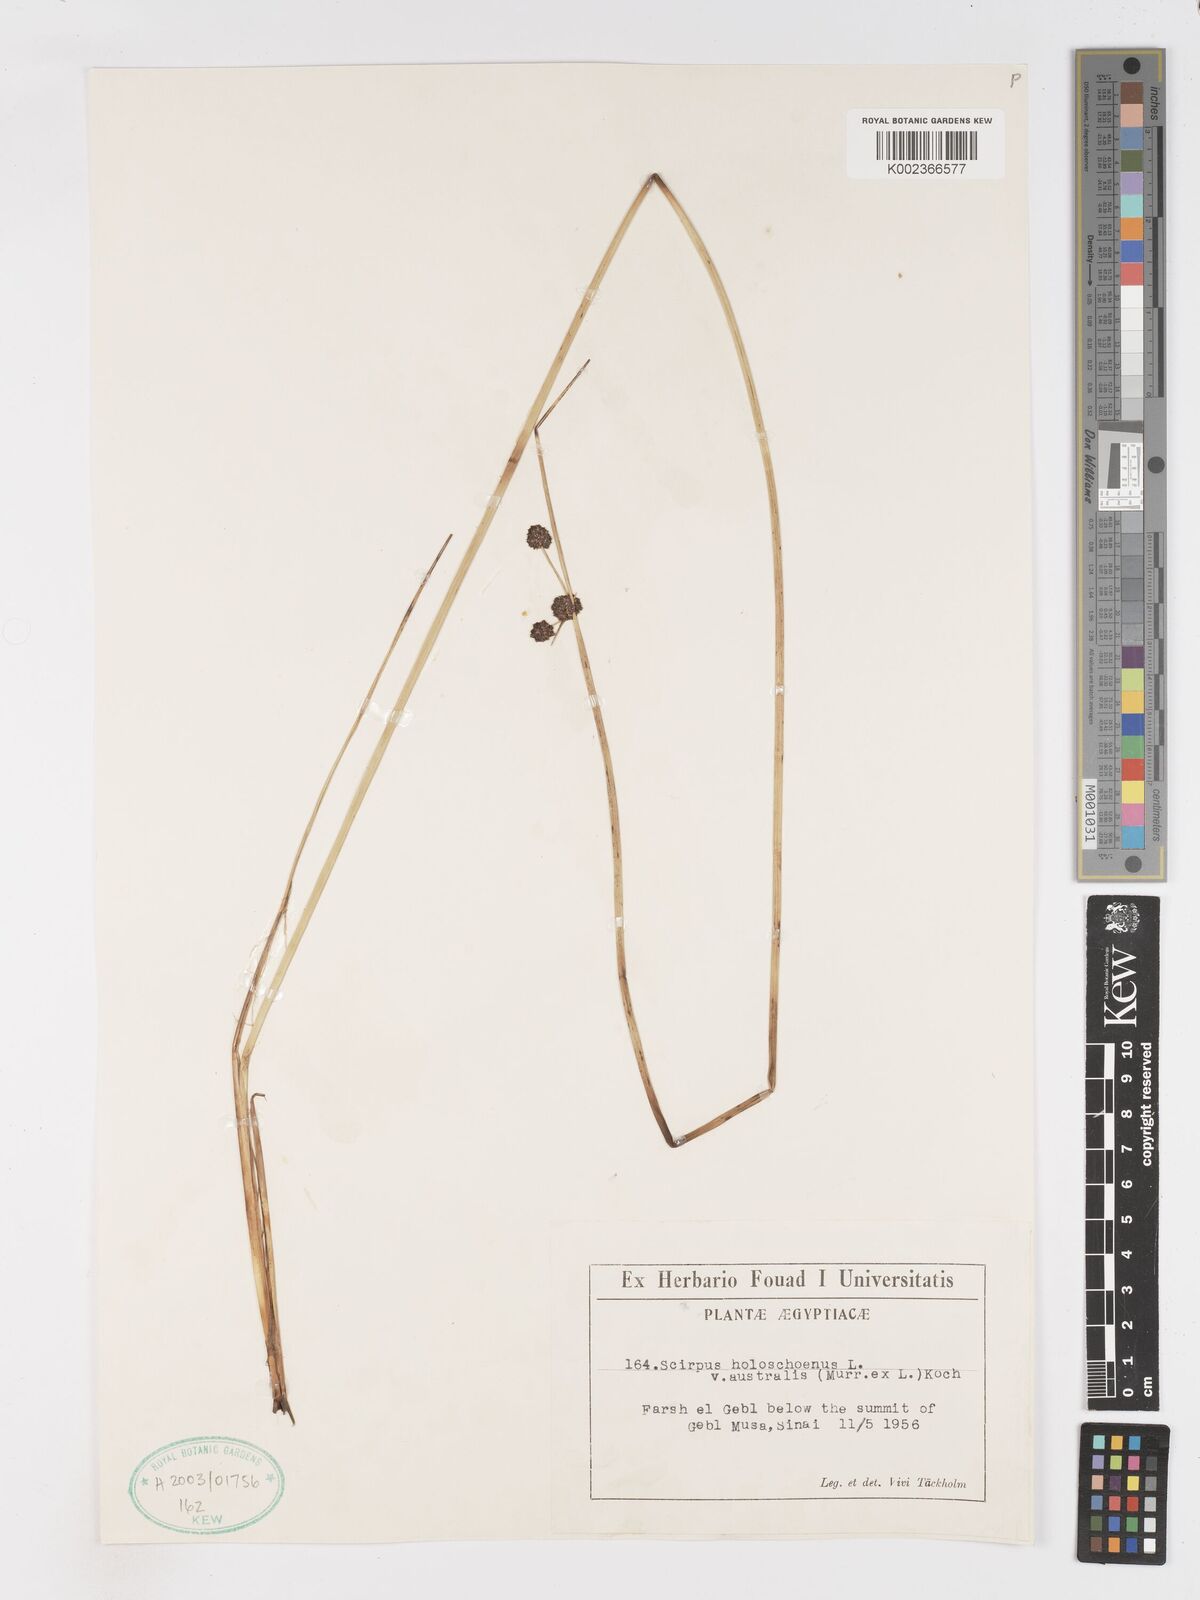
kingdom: Plantae
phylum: Tracheophyta
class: Liliopsida
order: Poales
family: Cyperaceae
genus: Scirpoides
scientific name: Scirpoides holoschoenus
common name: Round-headed club-rush
